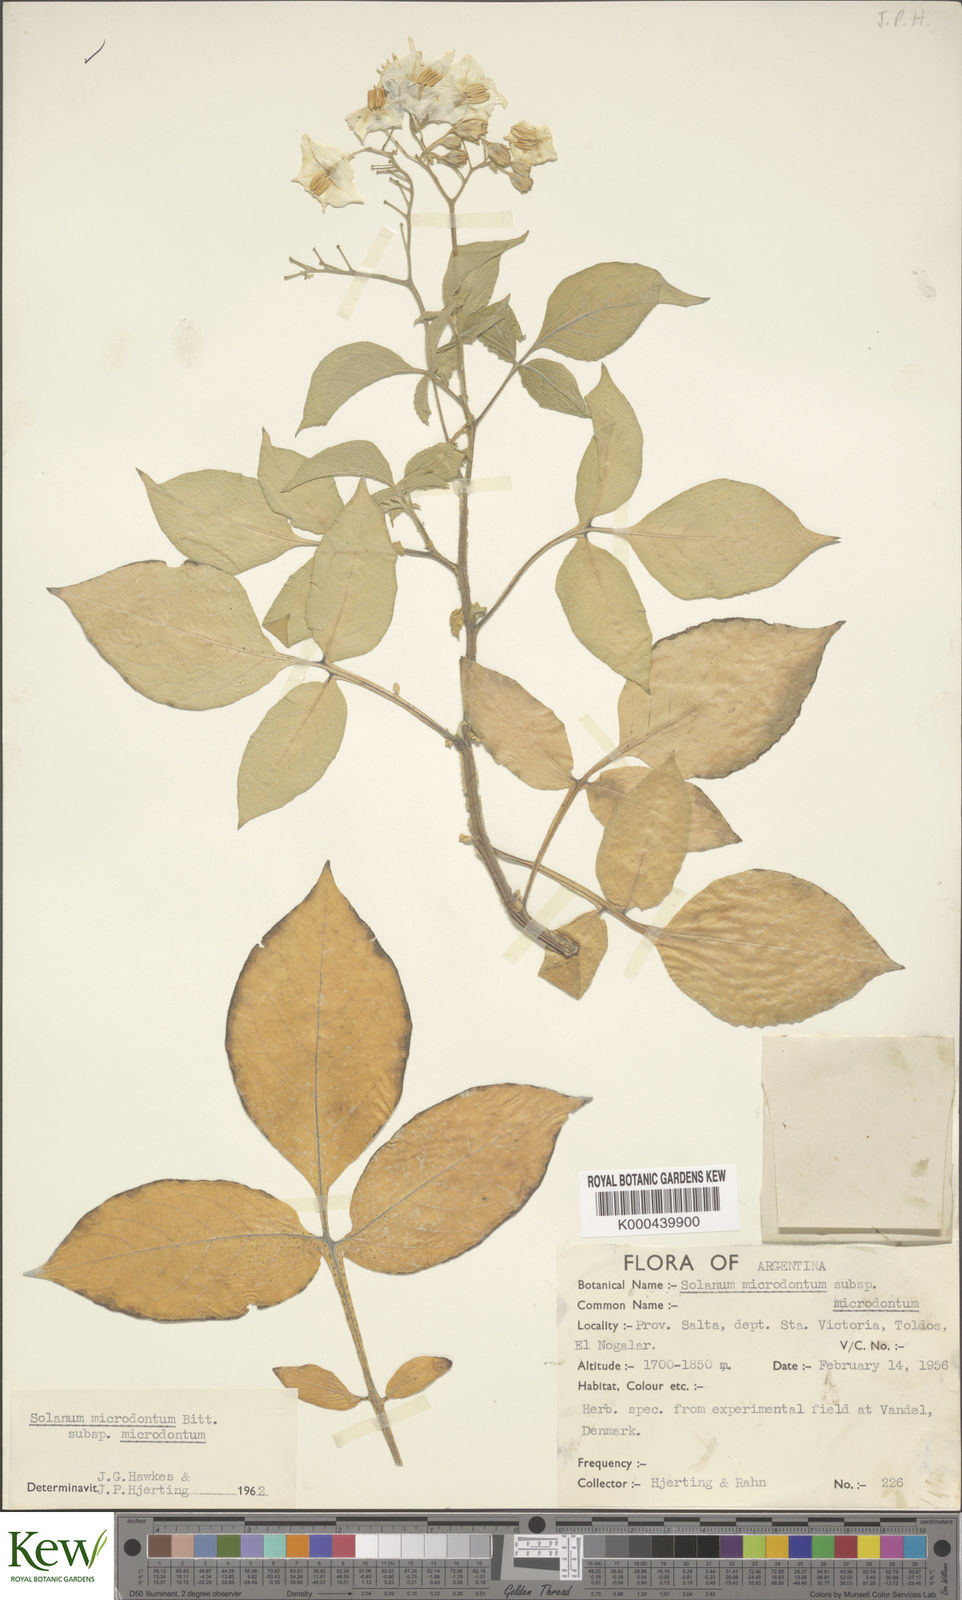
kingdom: Plantae
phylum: Tracheophyta
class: Magnoliopsida
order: Solanales
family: Solanaceae
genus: Solanum
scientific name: Solanum microdontum
